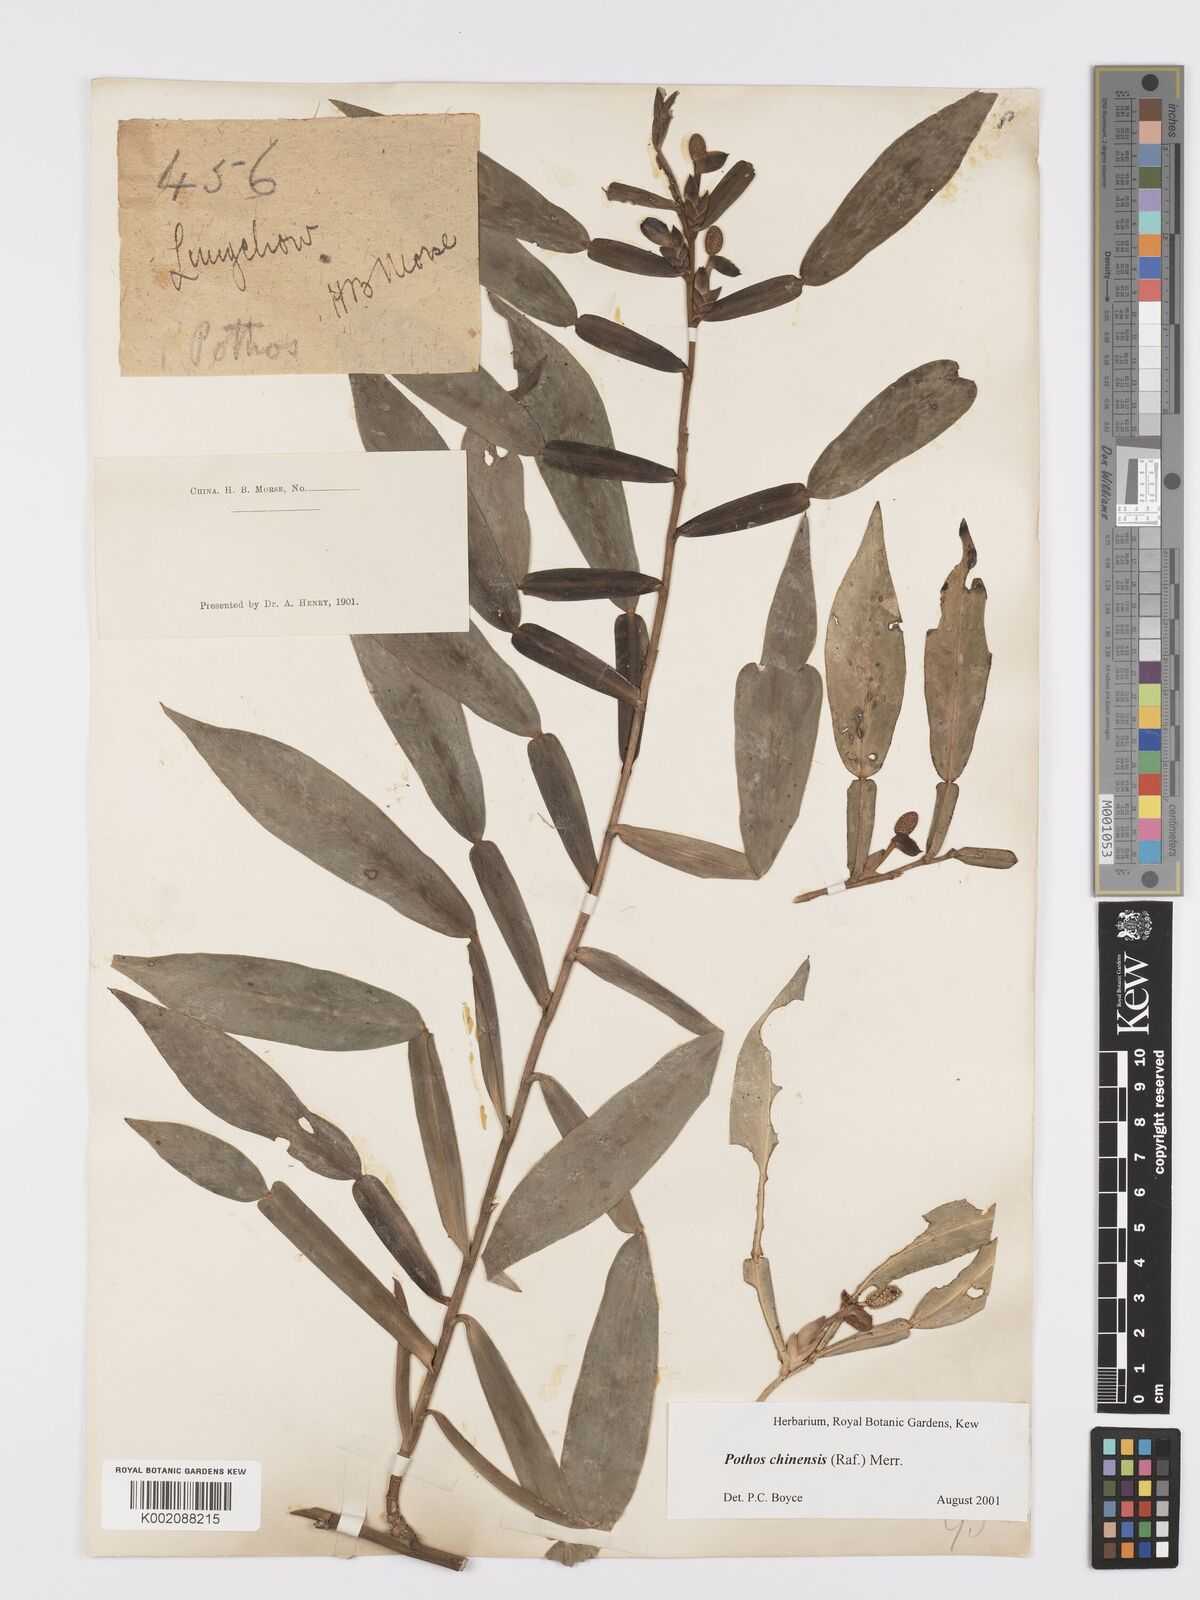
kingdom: Plantae
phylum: Tracheophyta
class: Liliopsida
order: Alismatales
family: Araceae
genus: Pothos
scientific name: Pothos chinensis
